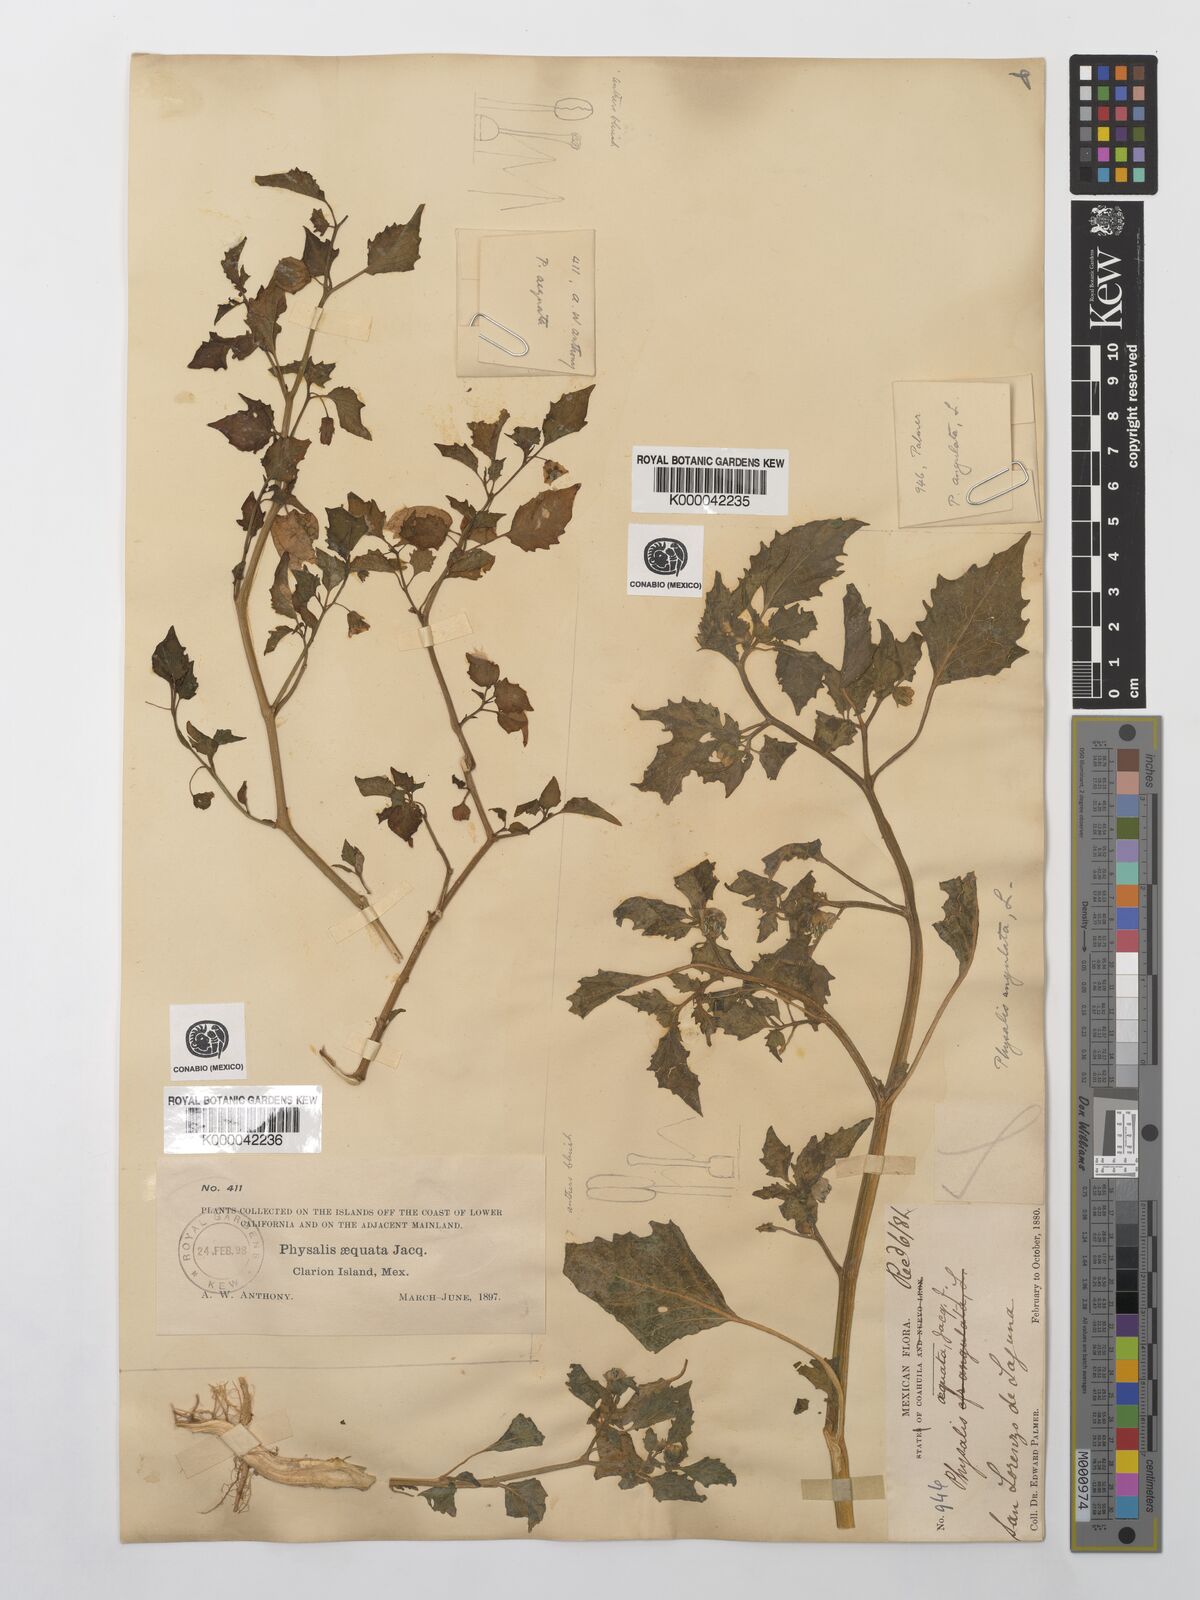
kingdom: Plantae
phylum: Tracheophyta
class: Magnoliopsida
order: Solanales
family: Solanaceae
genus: Physalis
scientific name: Physalis philadelphica
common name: Husk-tomato
